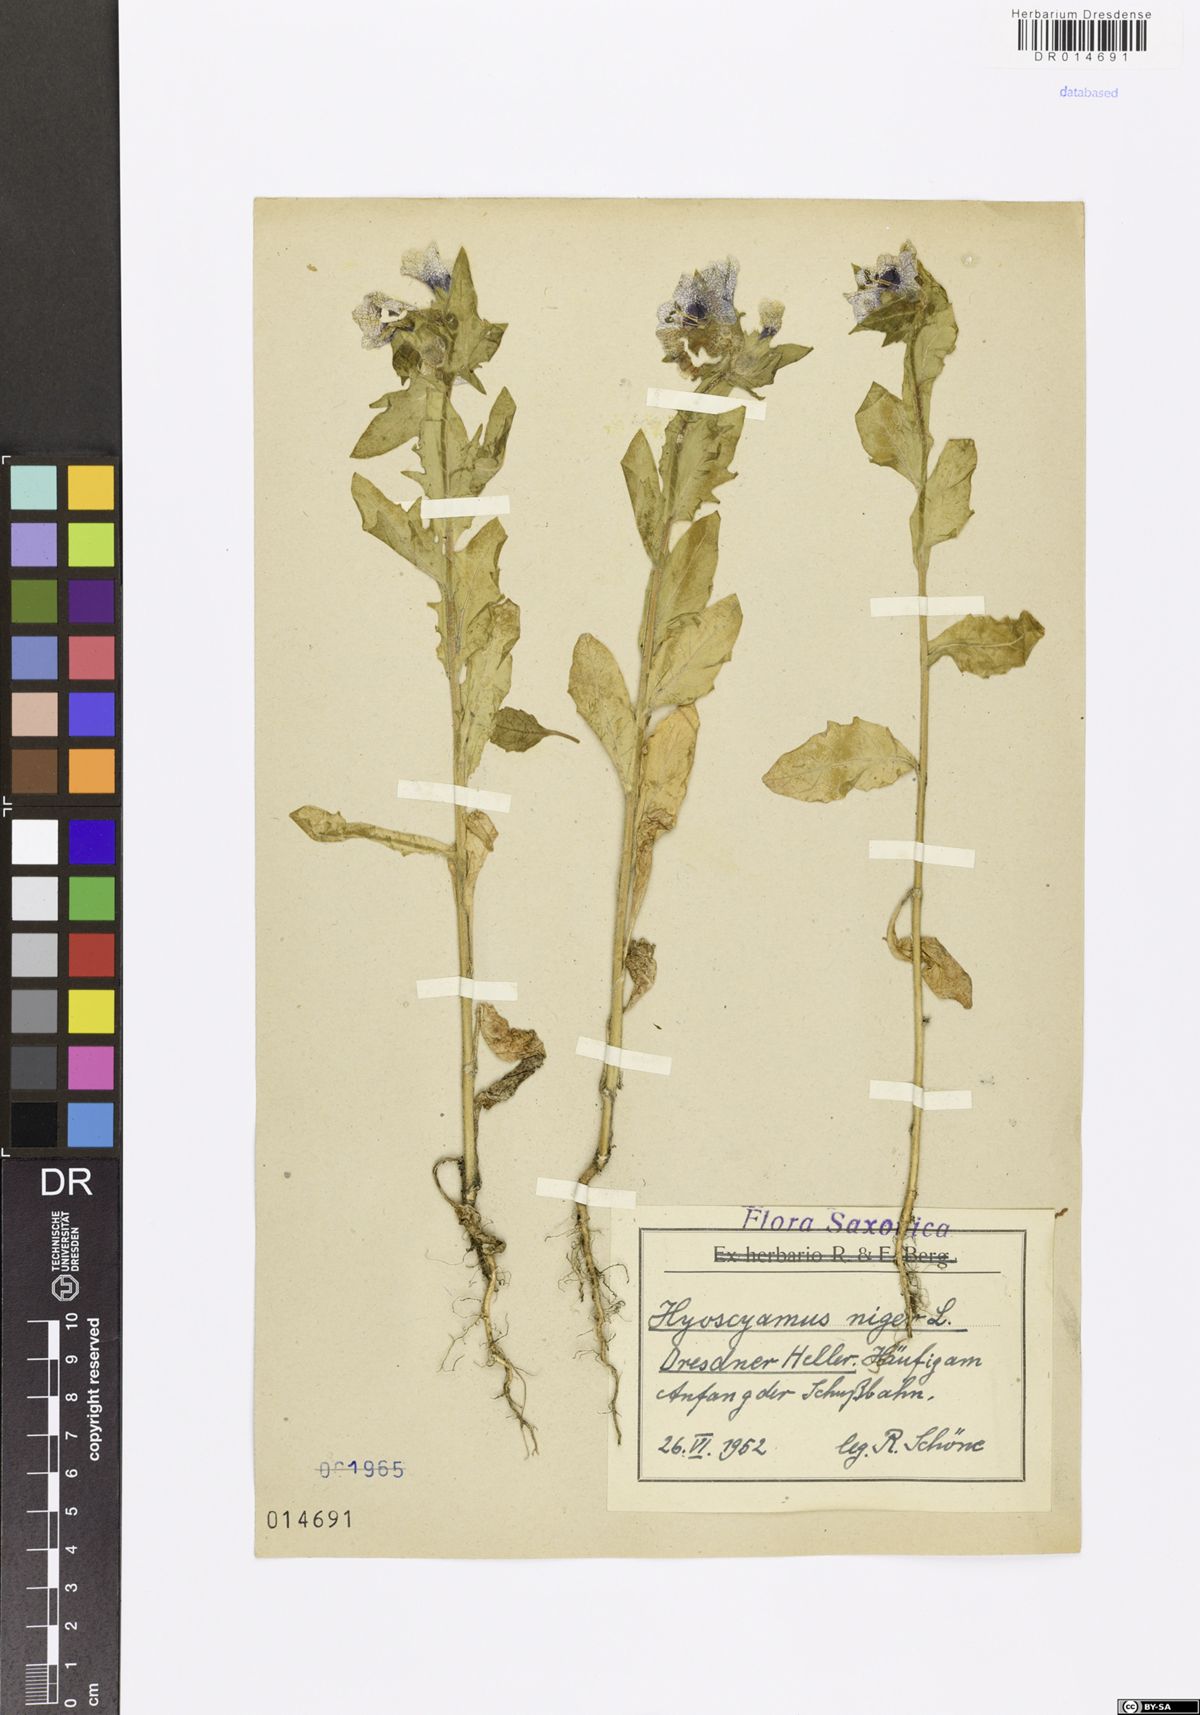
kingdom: Plantae
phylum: Tracheophyta
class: Magnoliopsida
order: Solanales
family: Solanaceae
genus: Hyoscyamus
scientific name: Hyoscyamus niger
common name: Henbane
